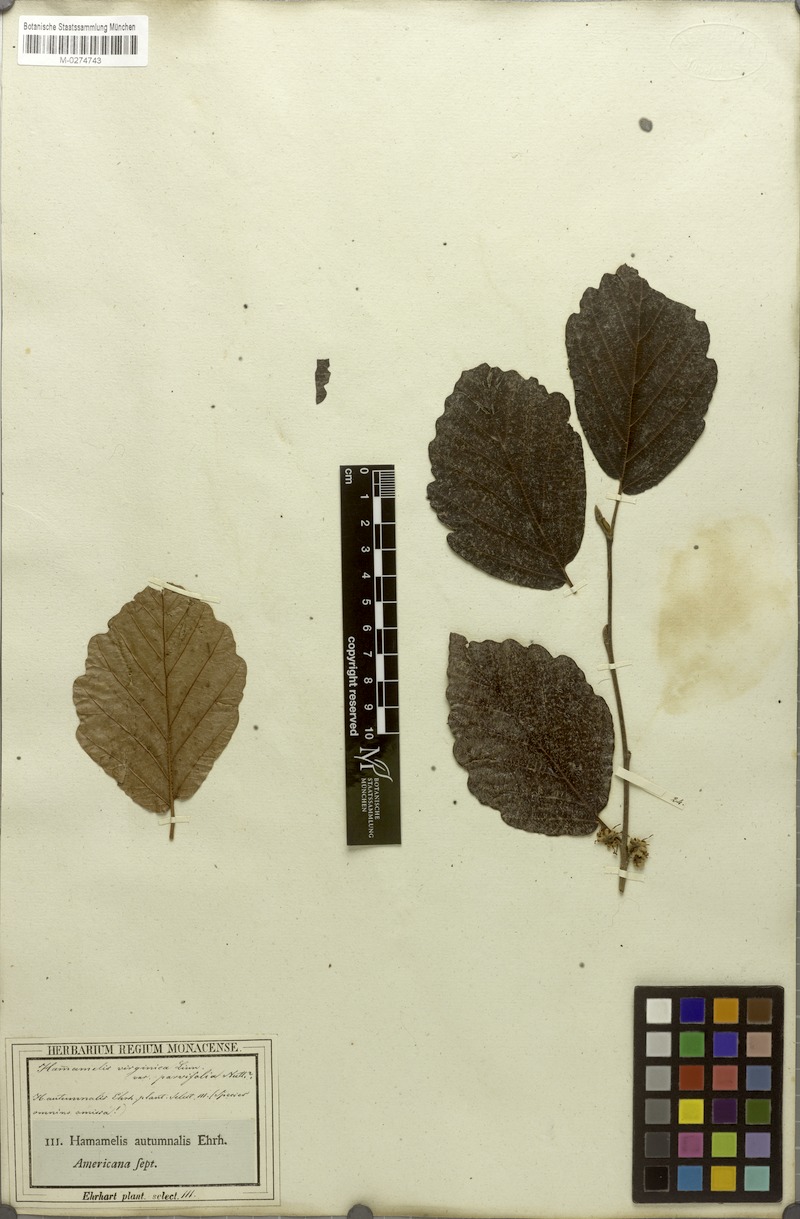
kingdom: Plantae
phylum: Tracheophyta
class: Magnoliopsida
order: Saxifragales
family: Hamamelidaceae
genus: Hamamelis
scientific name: Hamamelis virginiana
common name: Witch-hazel
